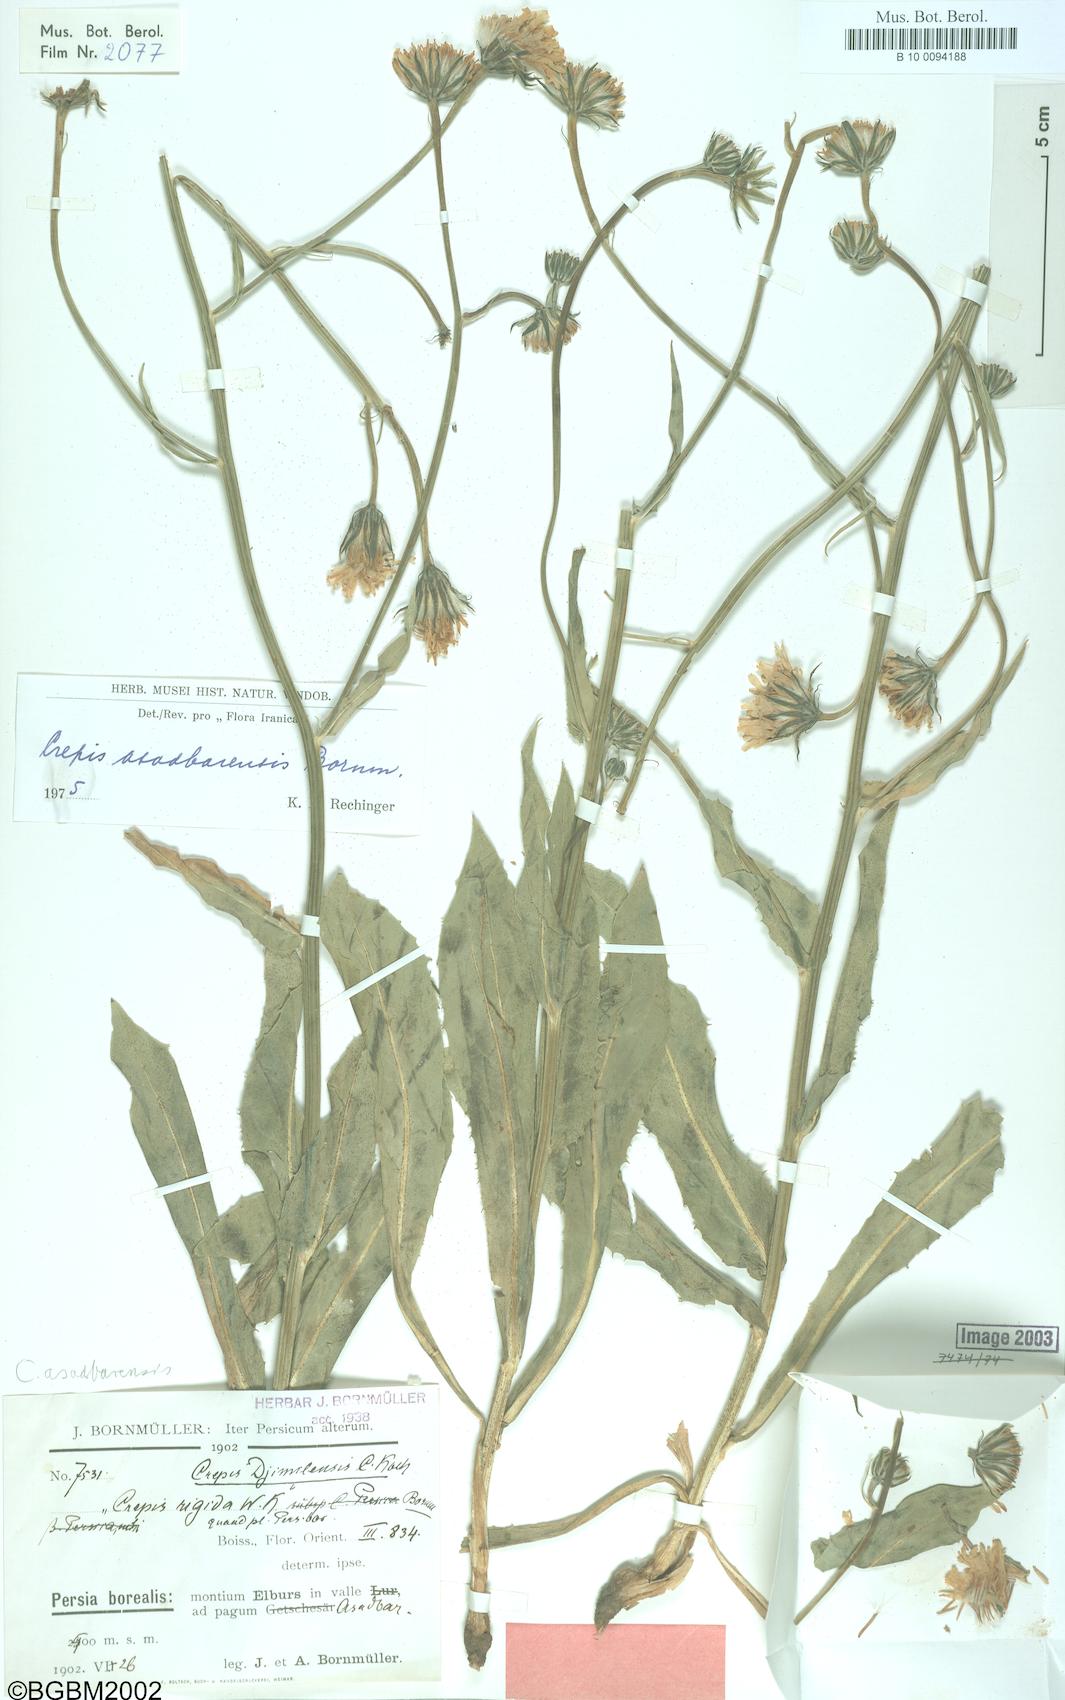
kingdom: Plantae
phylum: Tracheophyta
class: Magnoliopsida
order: Asterales
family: Asteraceae
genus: Crepis
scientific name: Crepis asadbarensis
